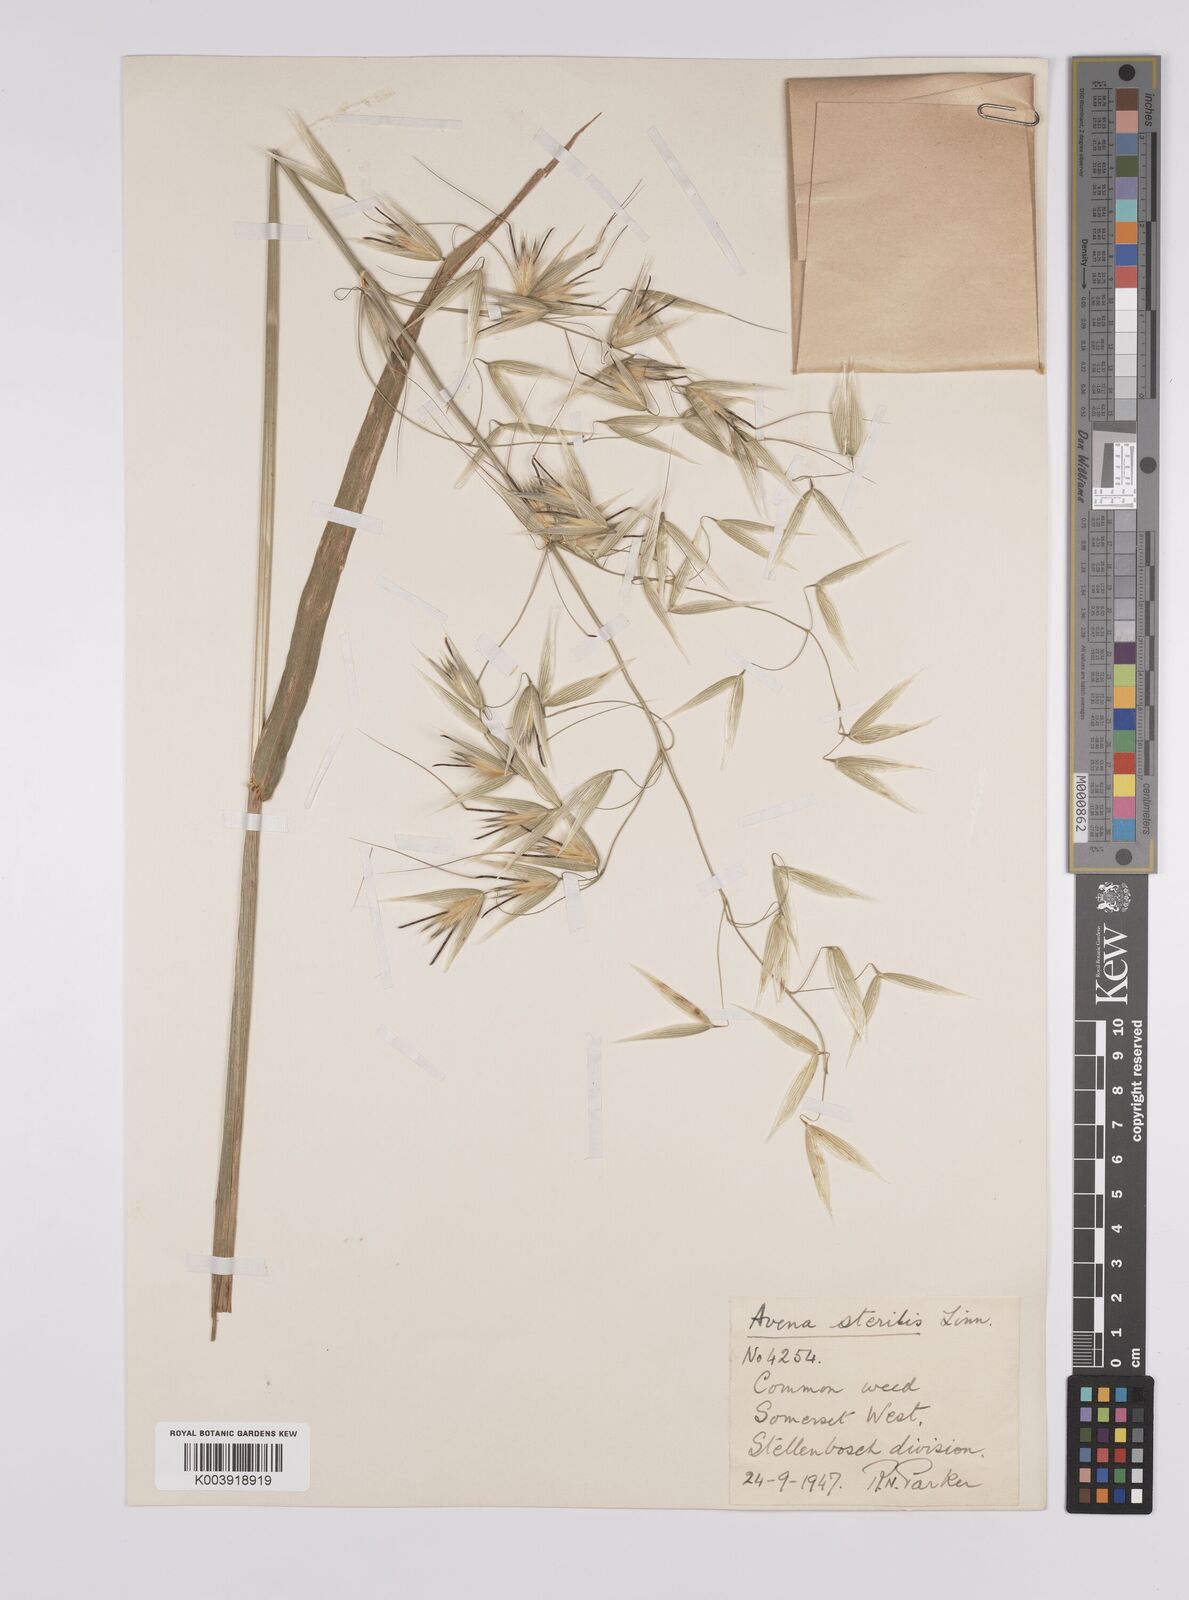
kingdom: Plantae
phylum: Tracheophyta
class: Liliopsida
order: Poales
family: Poaceae
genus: Avena
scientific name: Avena sterilis
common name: Animated oat
